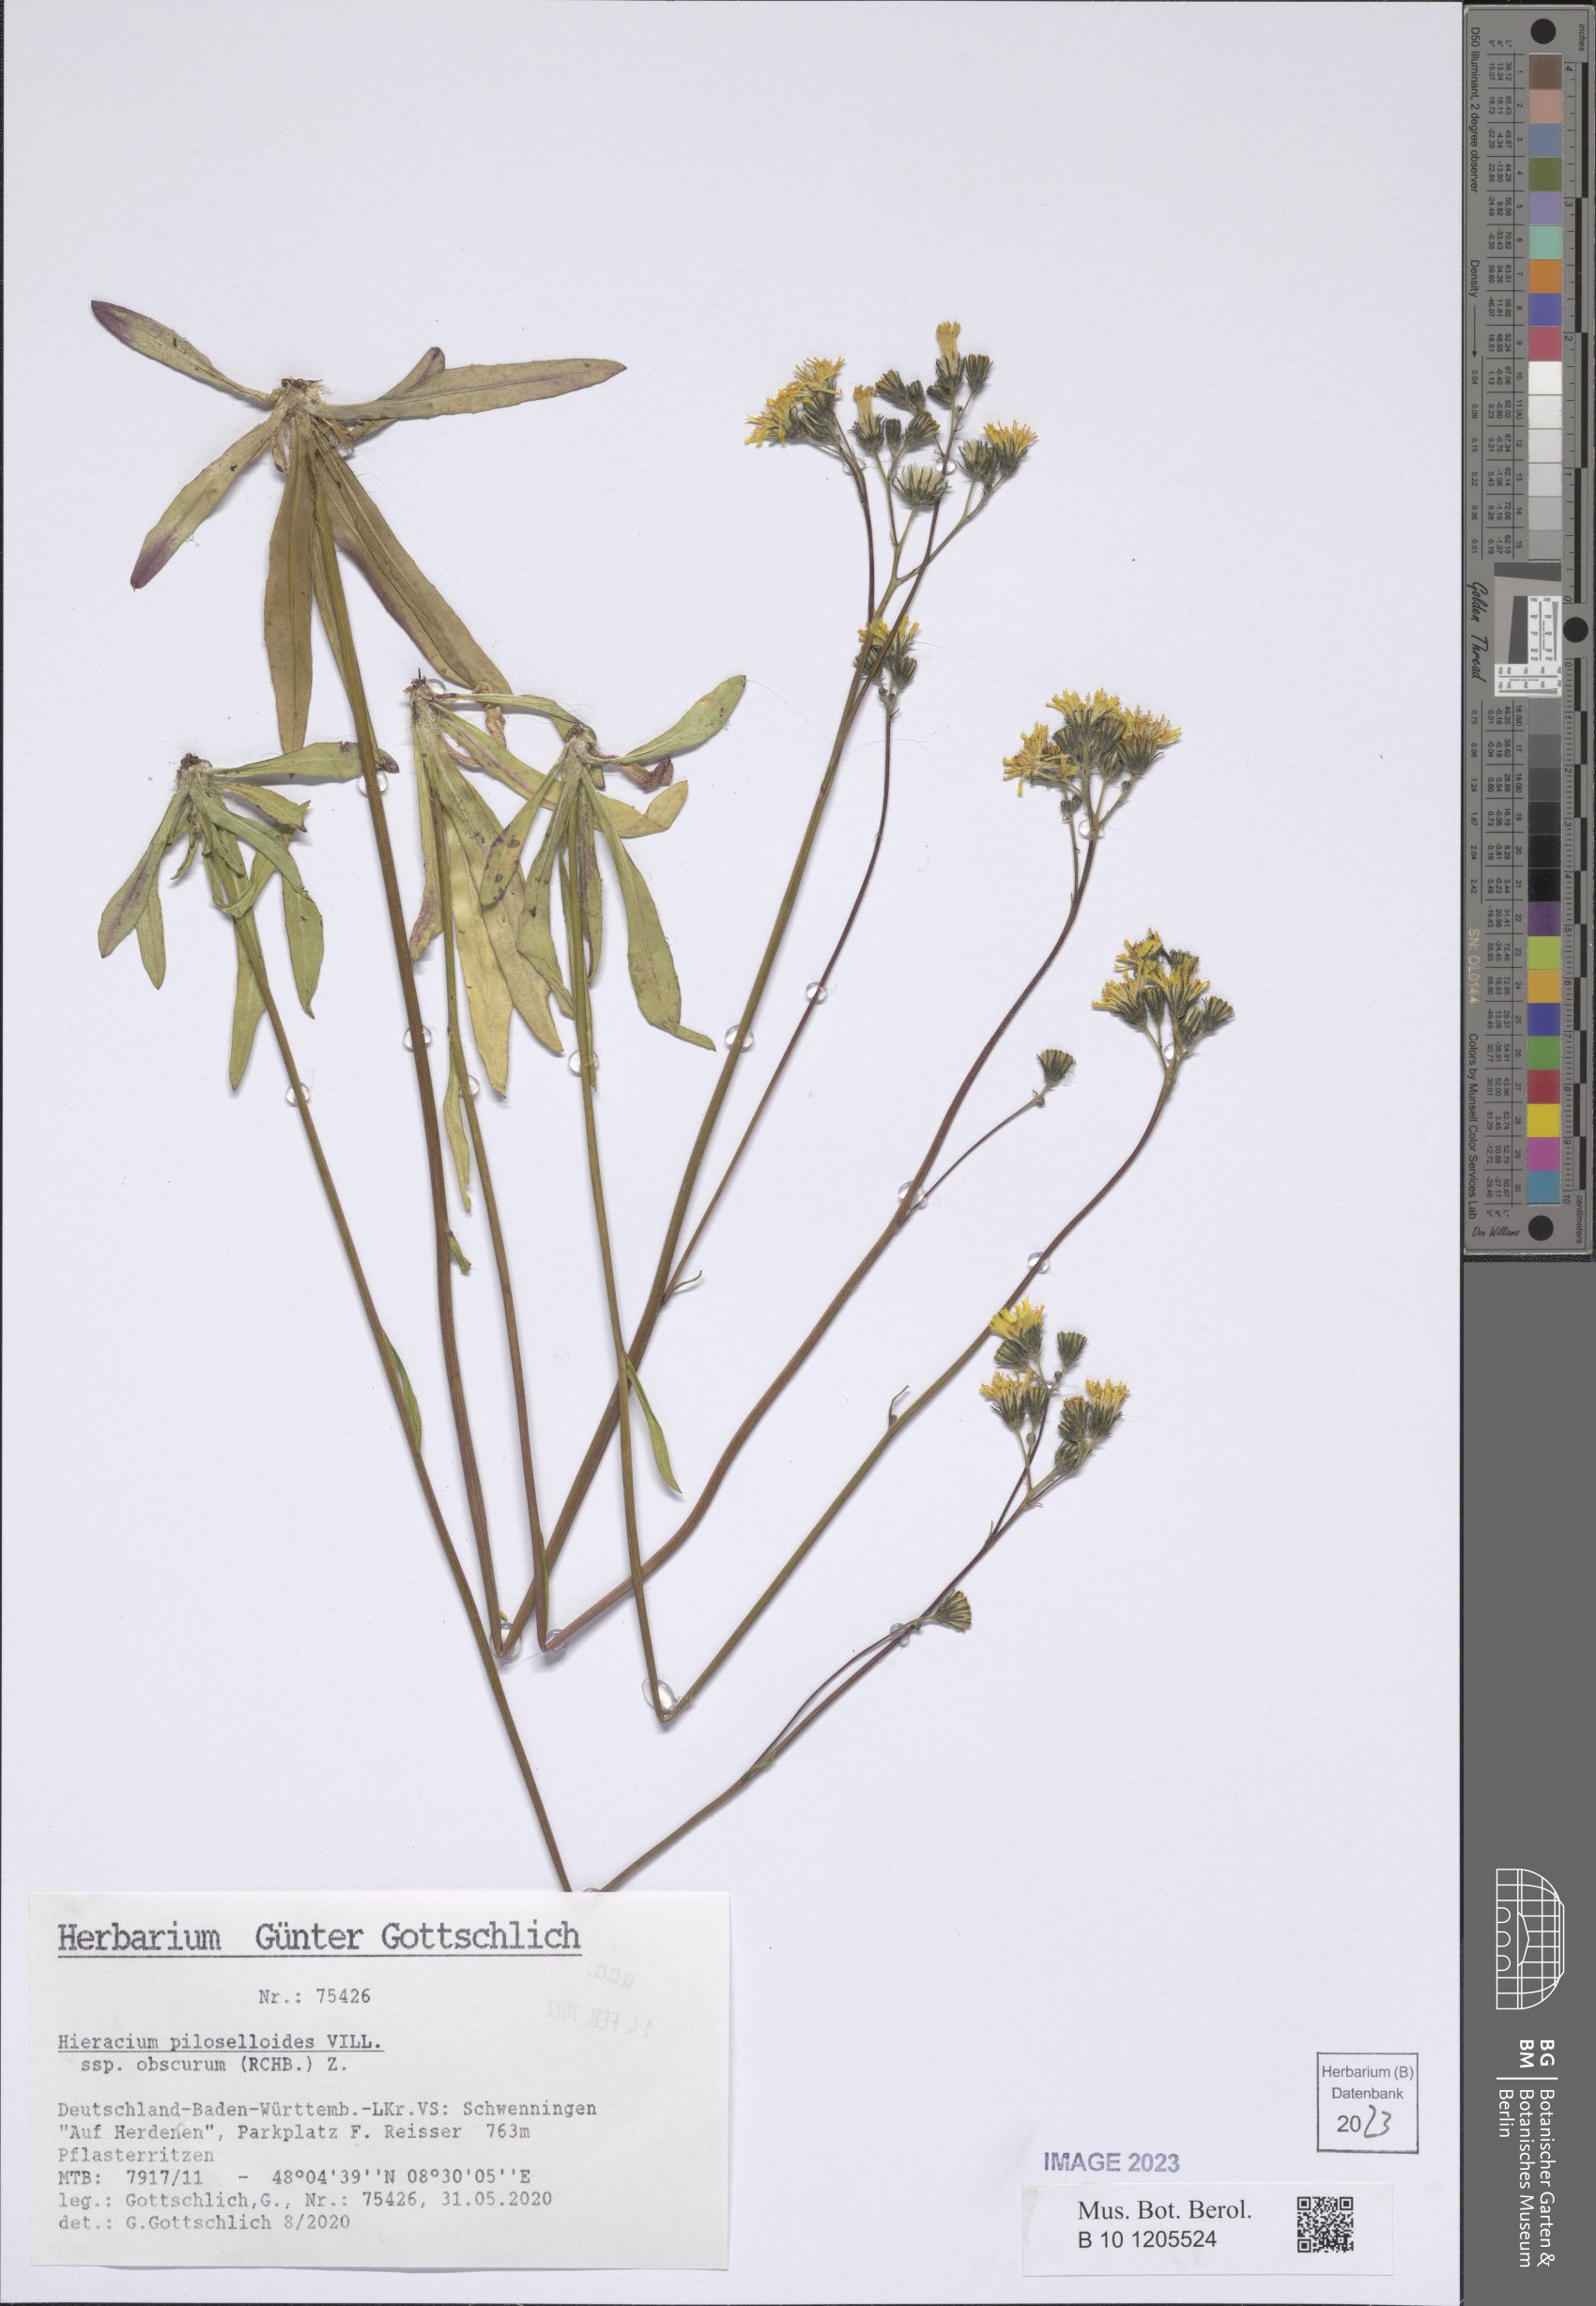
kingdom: Plantae
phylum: Tracheophyta
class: Magnoliopsida
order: Asterales
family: Asteraceae
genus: Pilosella
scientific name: Pilosella piloselloides
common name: Glaucous king-devil
